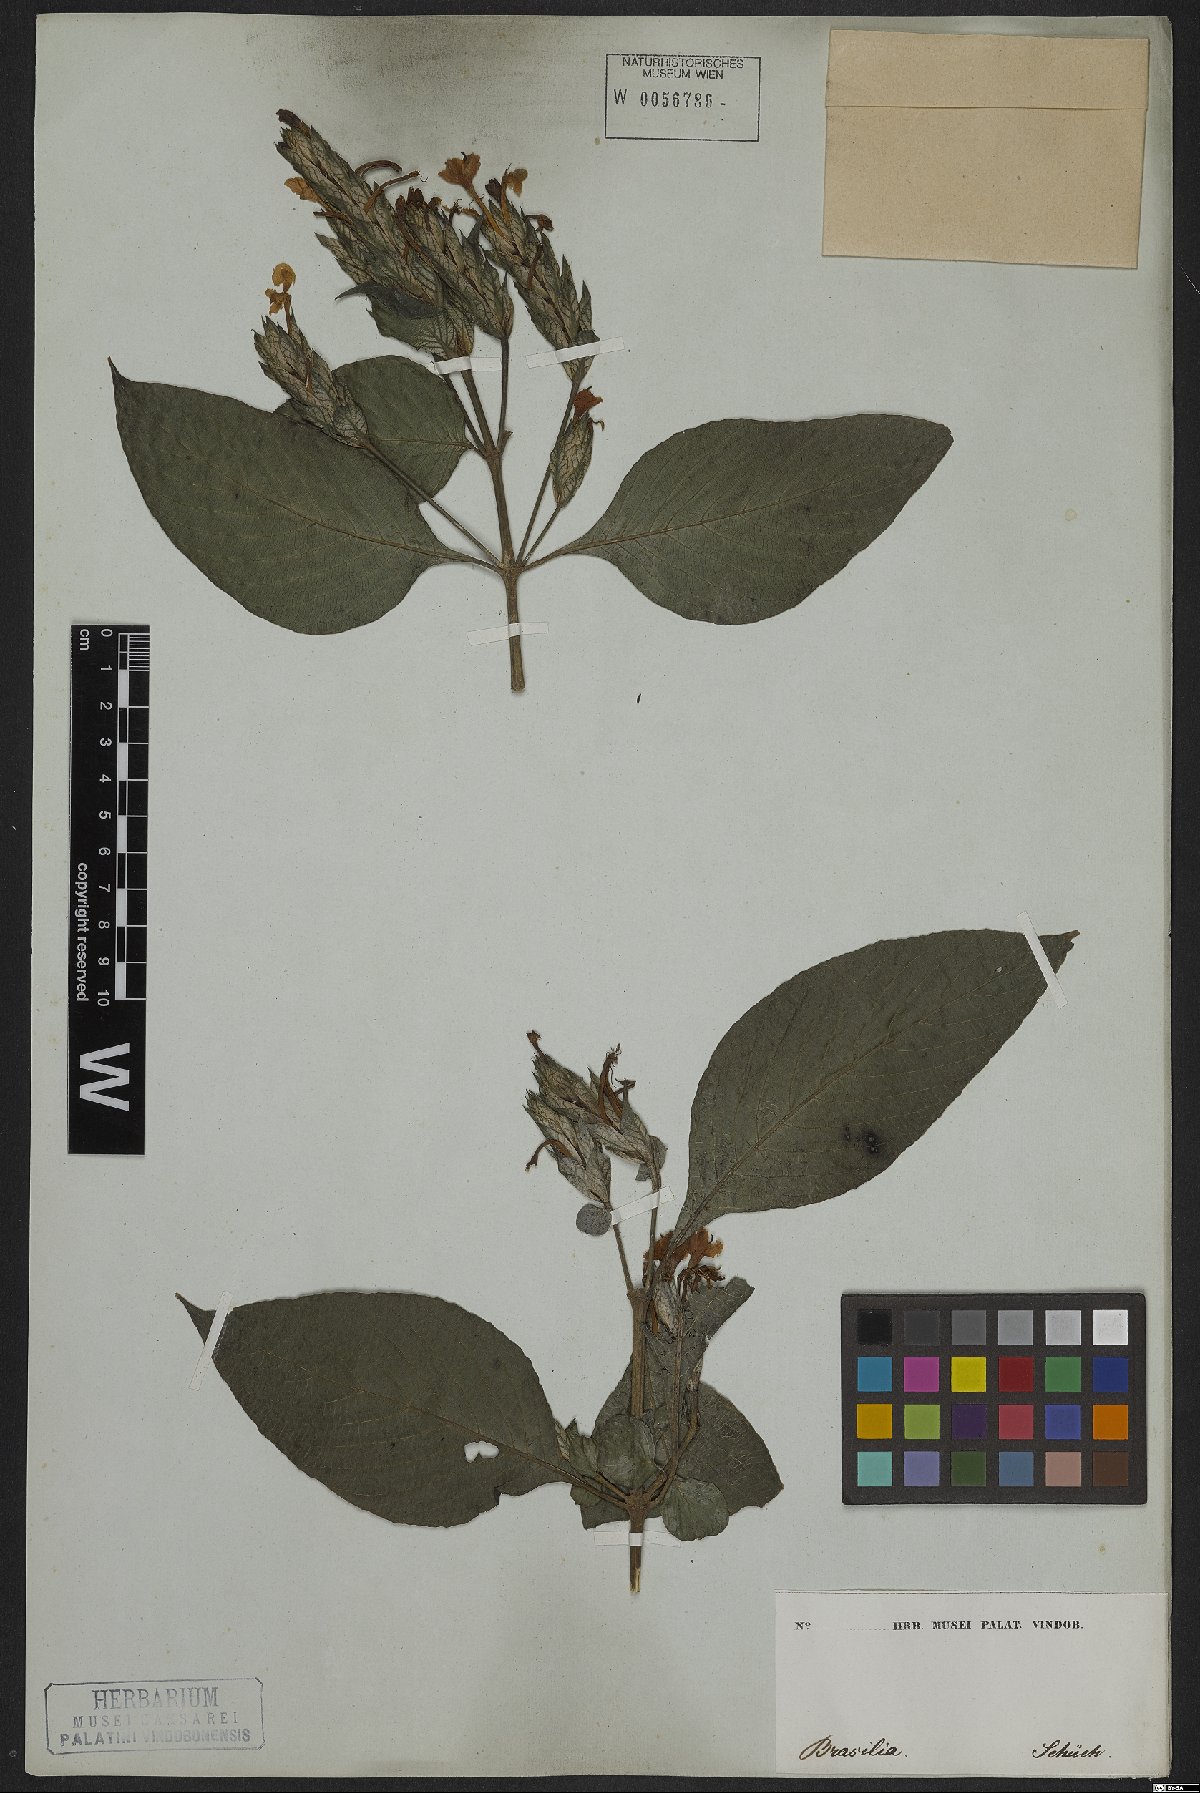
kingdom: Plantae
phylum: Tracheophyta
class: Magnoliopsida
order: Lamiales
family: Acanthaceae
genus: Eranthemum
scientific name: Eranthemum pulchellum
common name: Blue-sage
